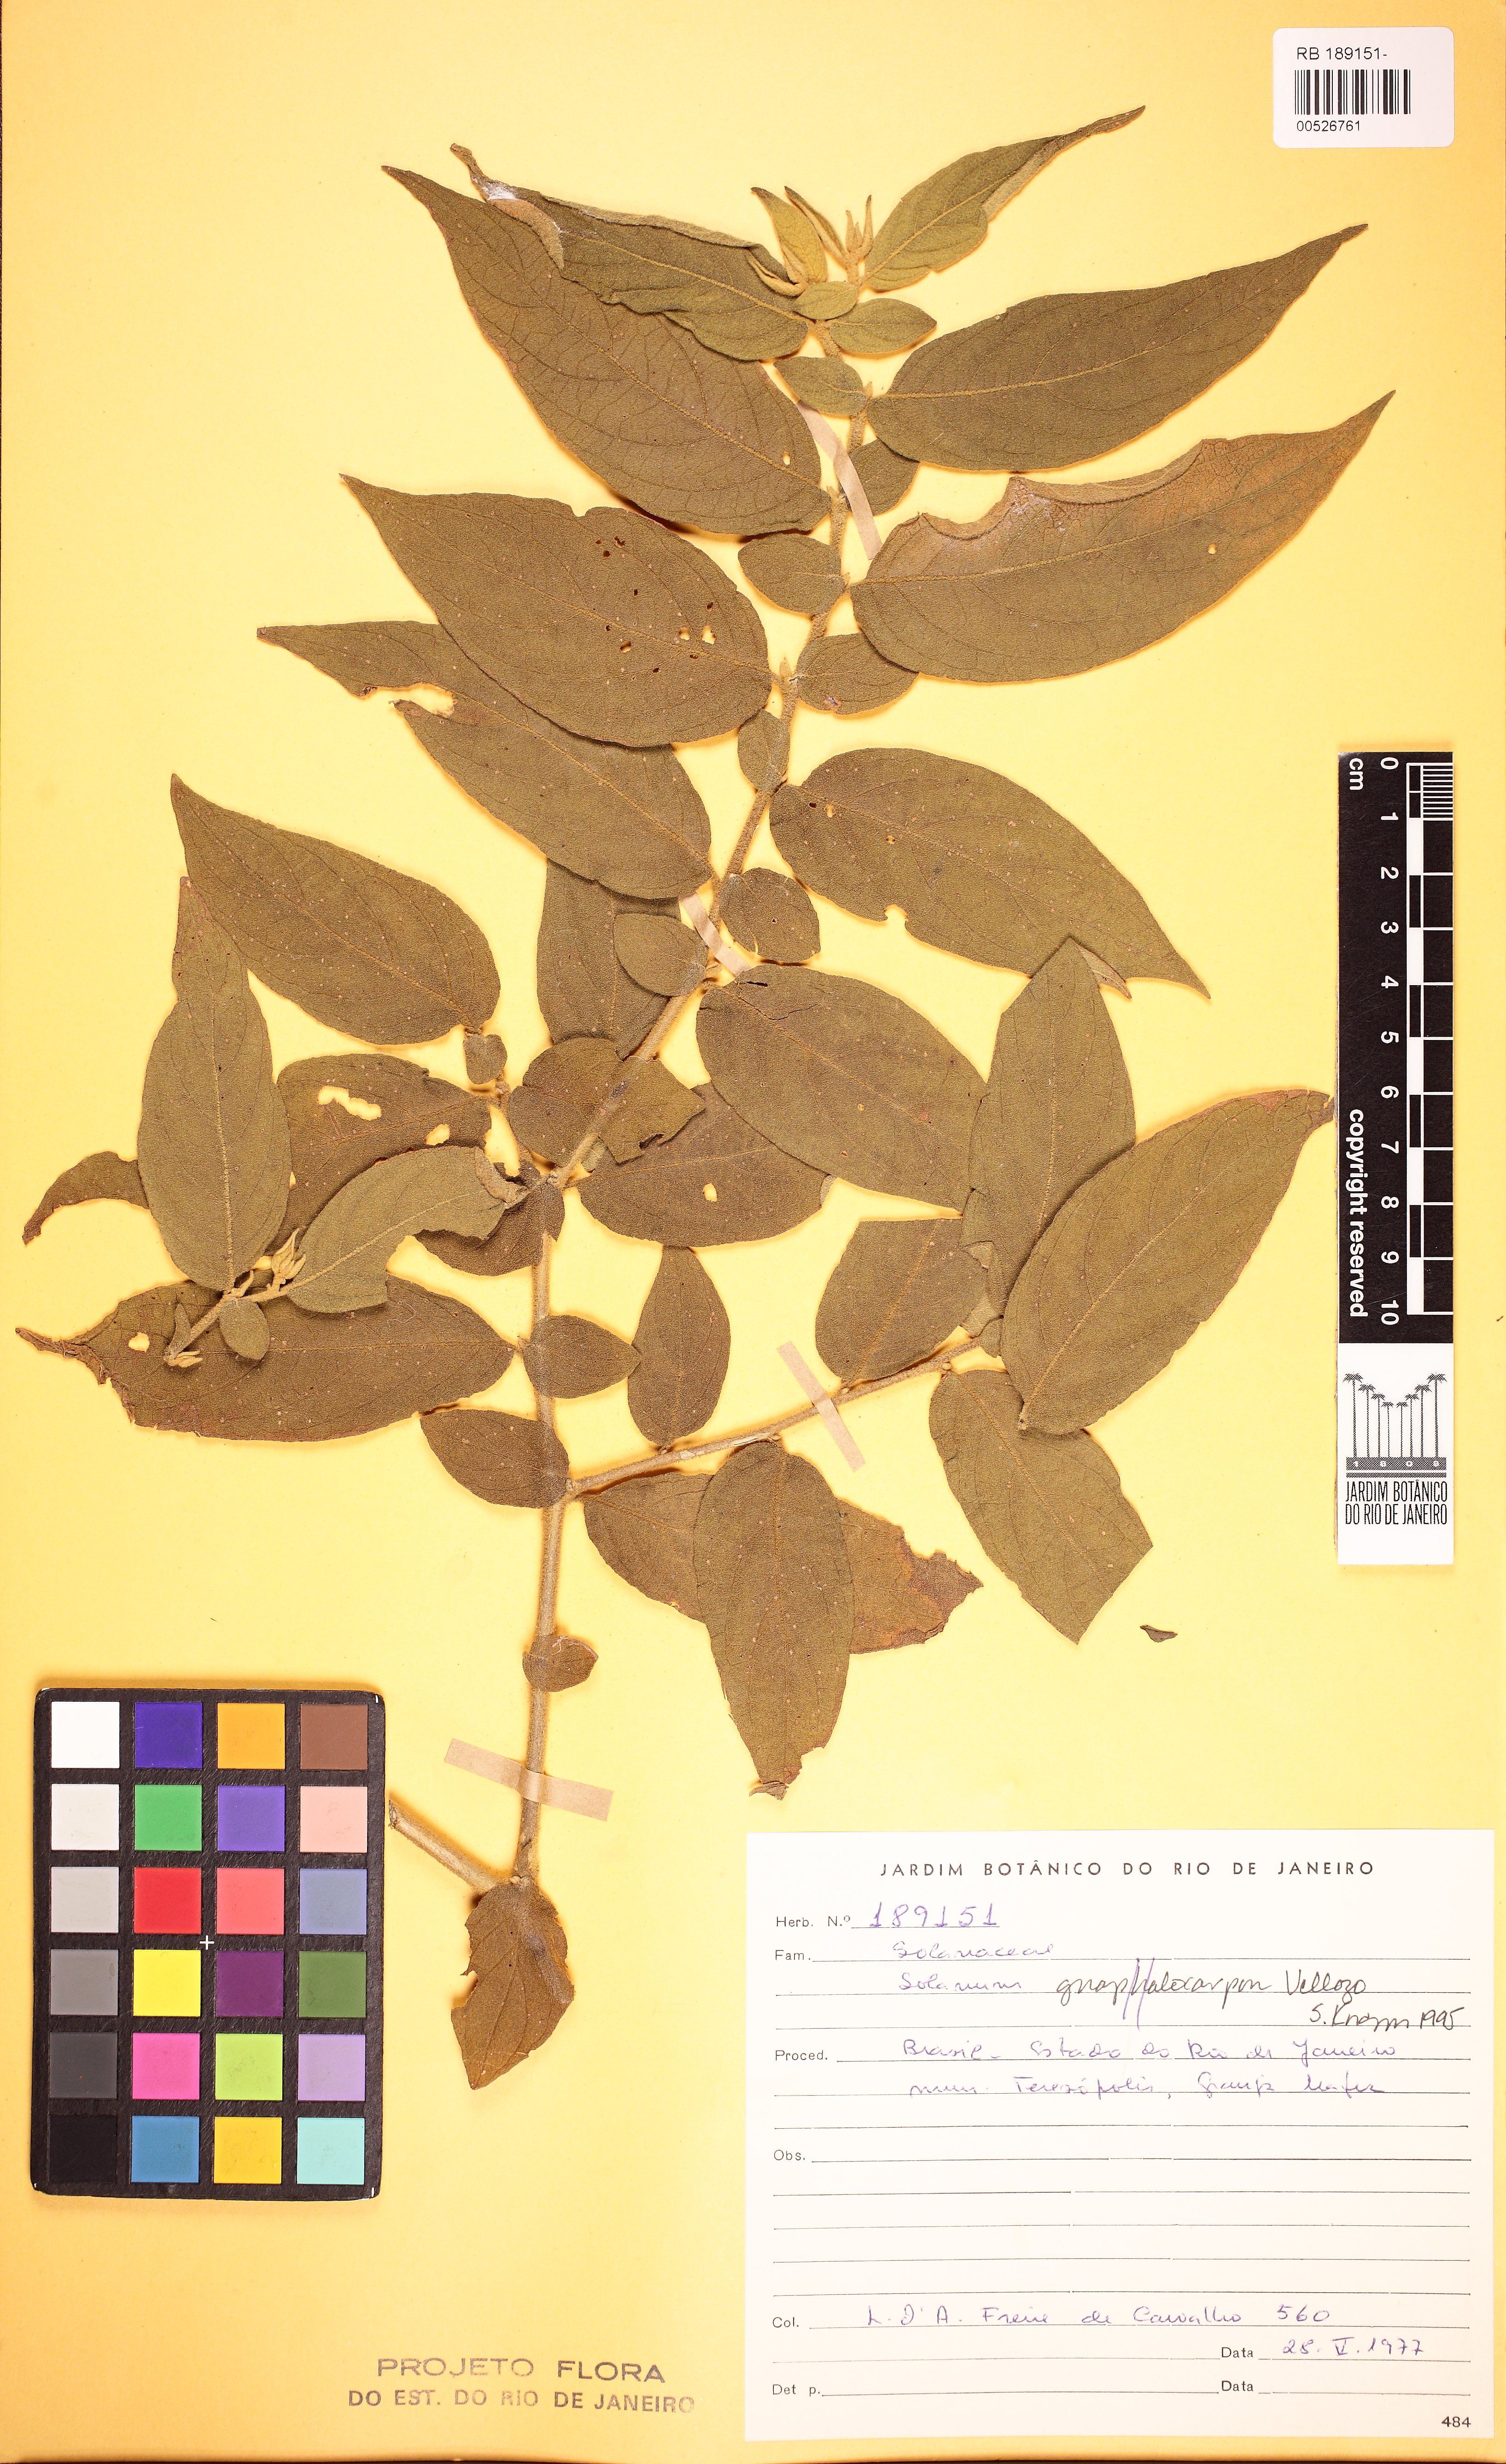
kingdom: Plantae
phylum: Tracheophyta
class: Magnoliopsida
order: Solanales
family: Solanaceae
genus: Solanum
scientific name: Solanum gnaphalocarpum
